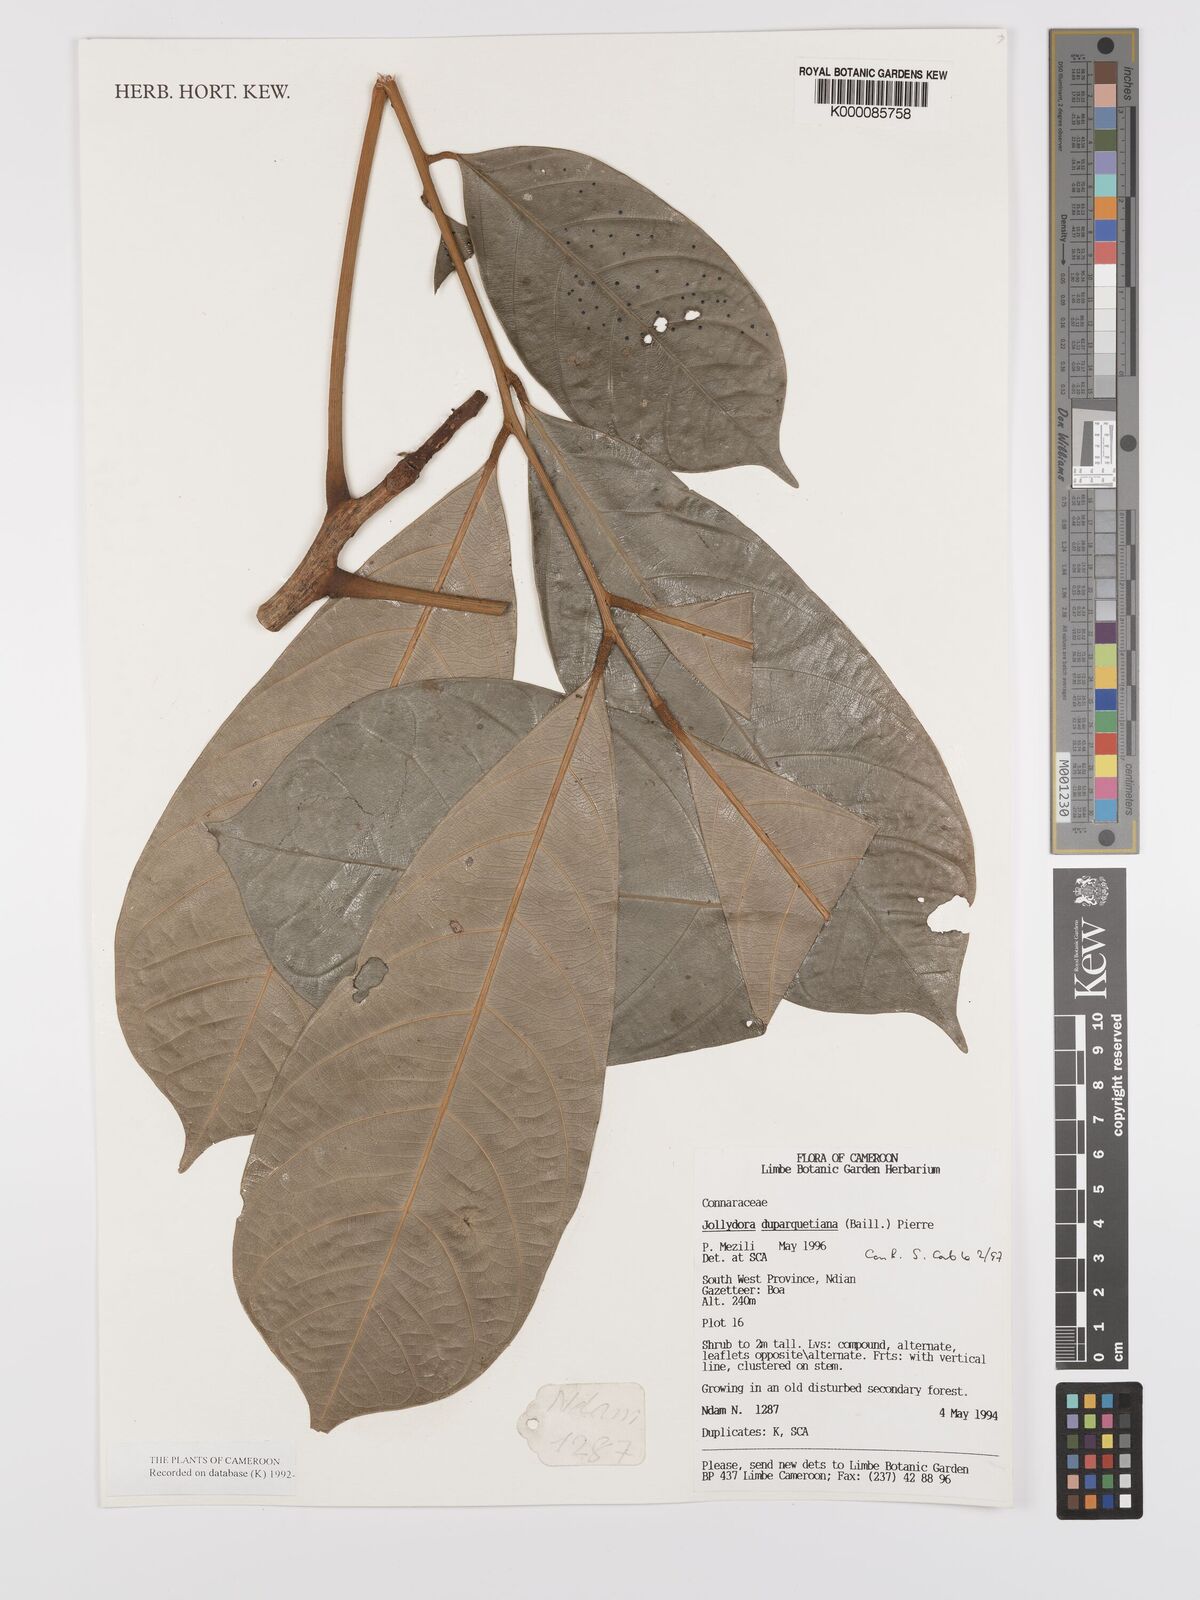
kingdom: Plantae
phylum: Tracheophyta
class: Magnoliopsida
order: Oxalidales
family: Connaraceae
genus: Jollydora
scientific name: Jollydora duparquetiana
